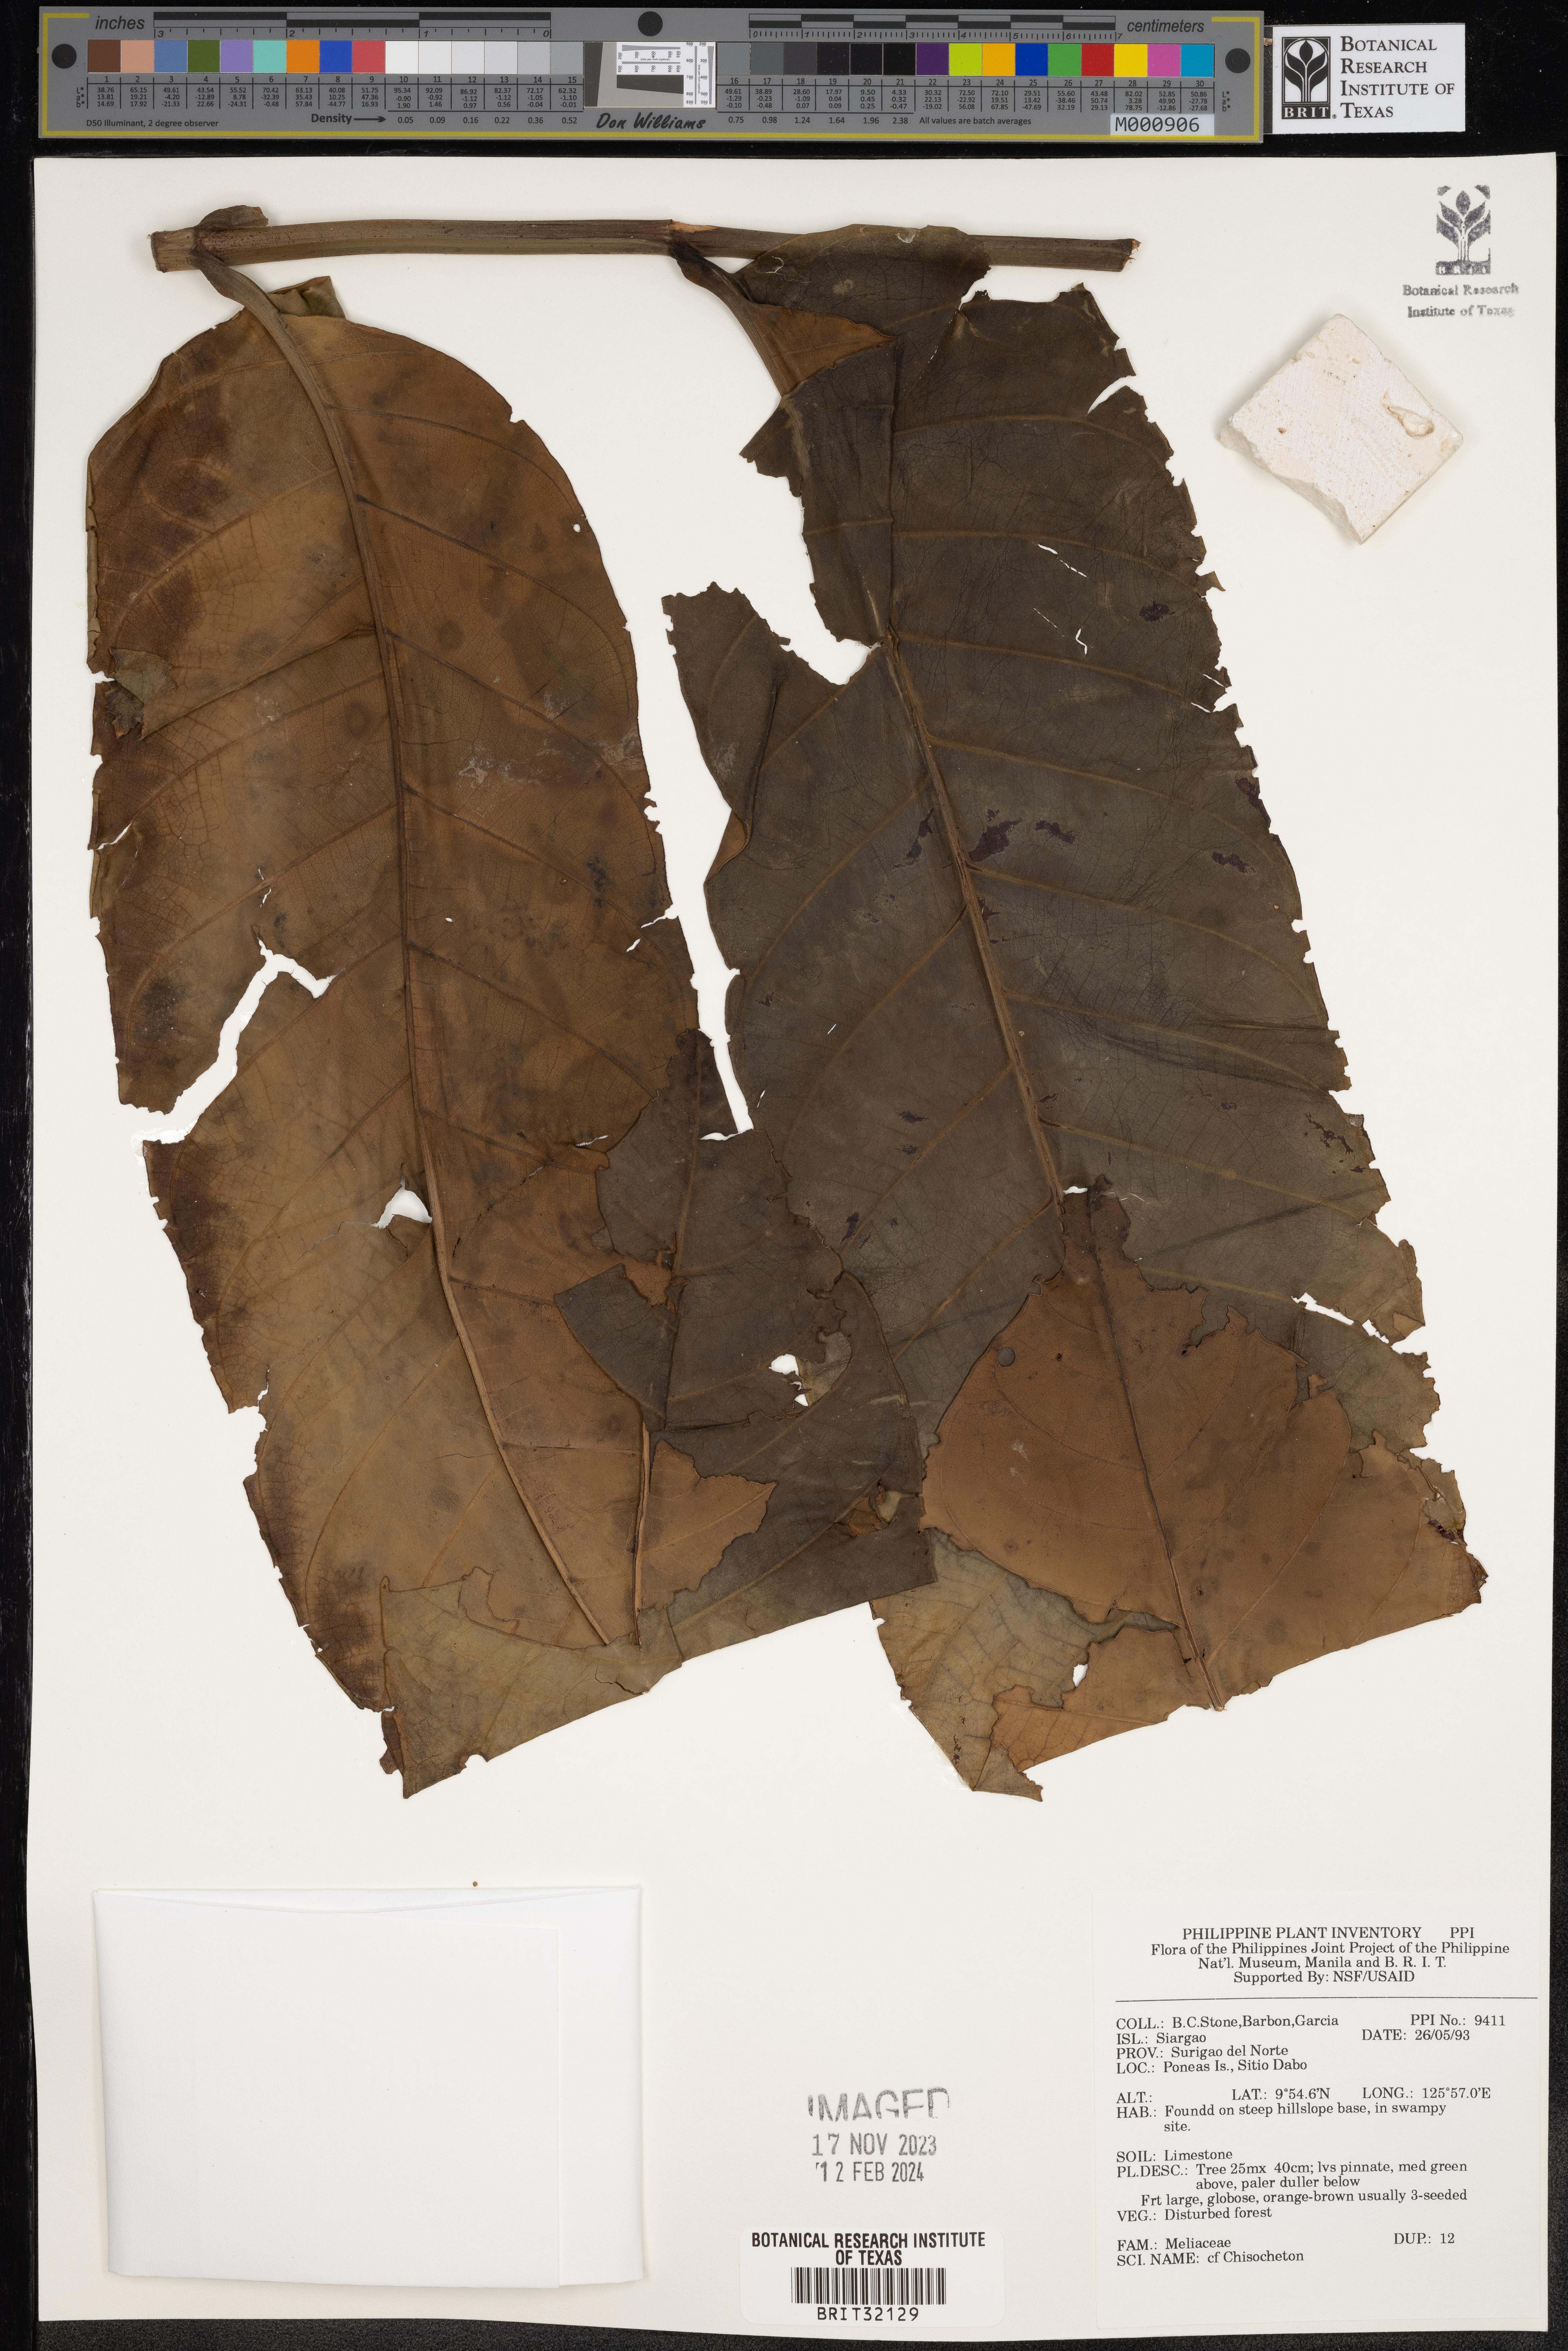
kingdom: Plantae
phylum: Tracheophyta
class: Magnoliopsida
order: Sapindales
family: Meliaceae
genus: Chisocheton
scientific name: Chisocheton
